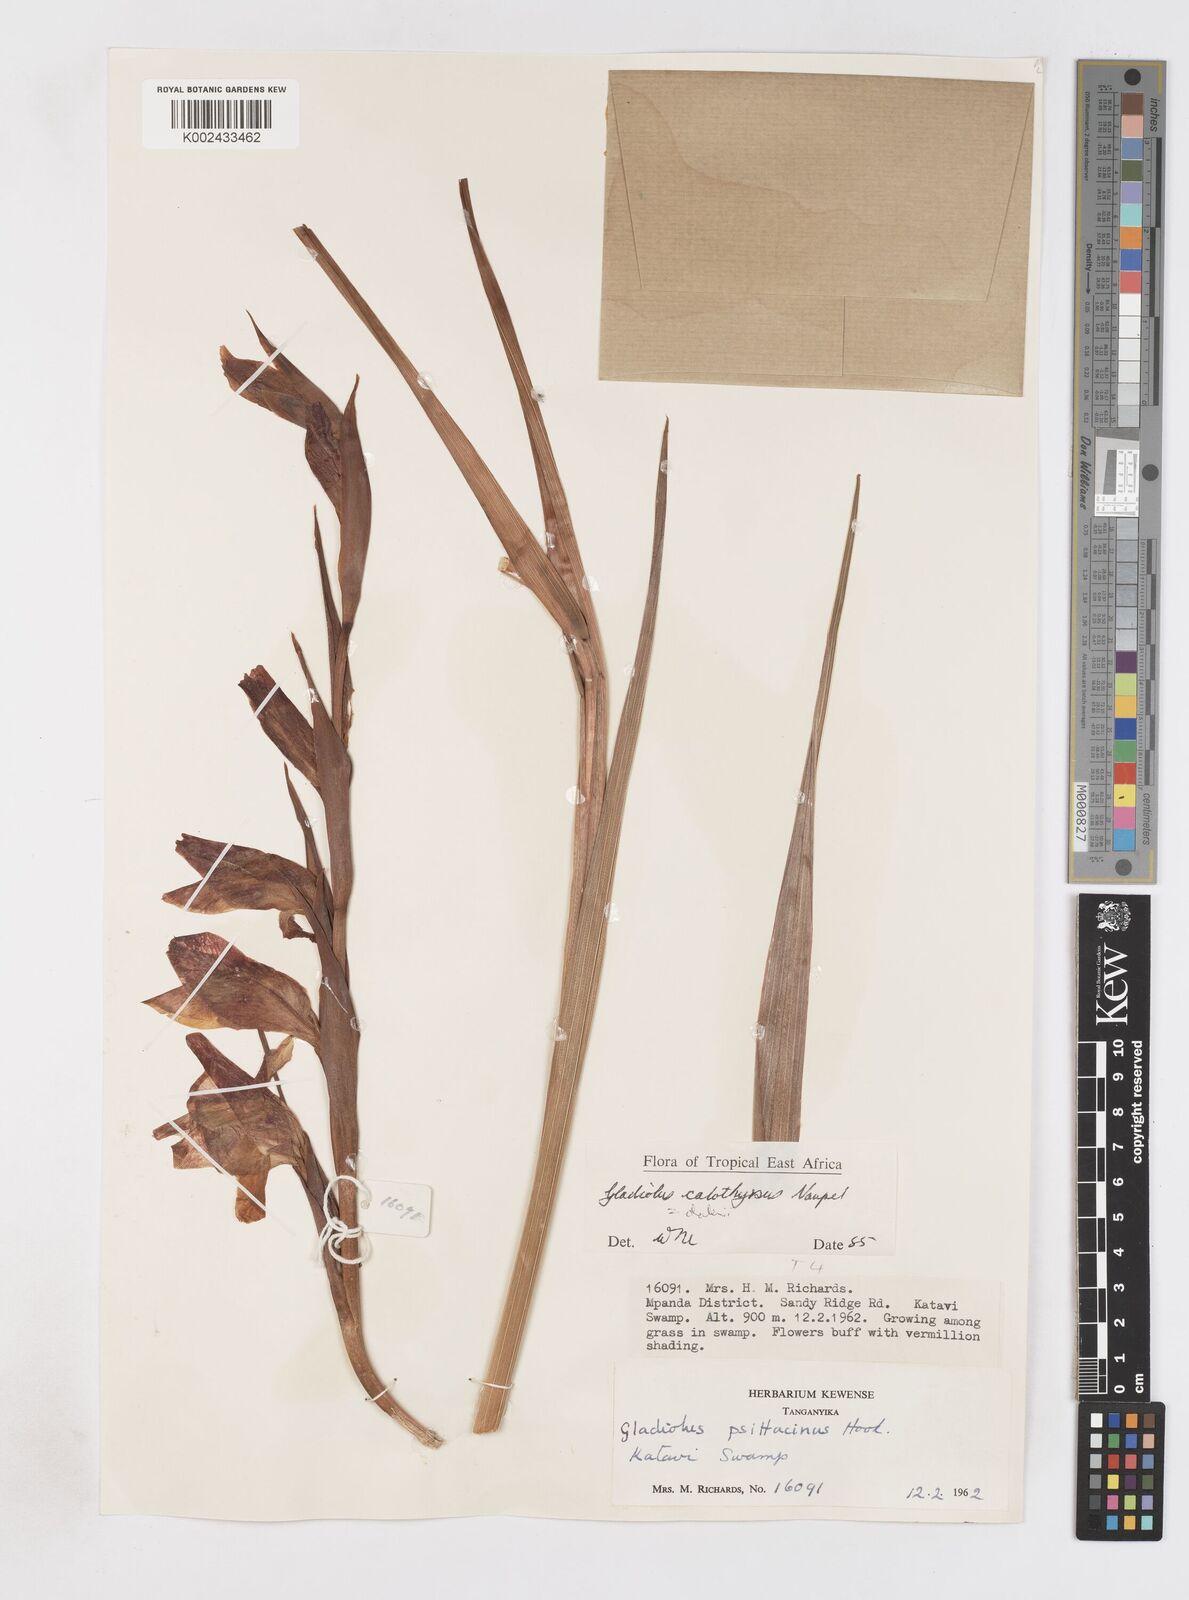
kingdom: Plantae
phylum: Tracheophyta
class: Liliopsida
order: Asparagales
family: Iridaceae
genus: Gladiolus
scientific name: Gladiolus dalenii
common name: Cornflag
